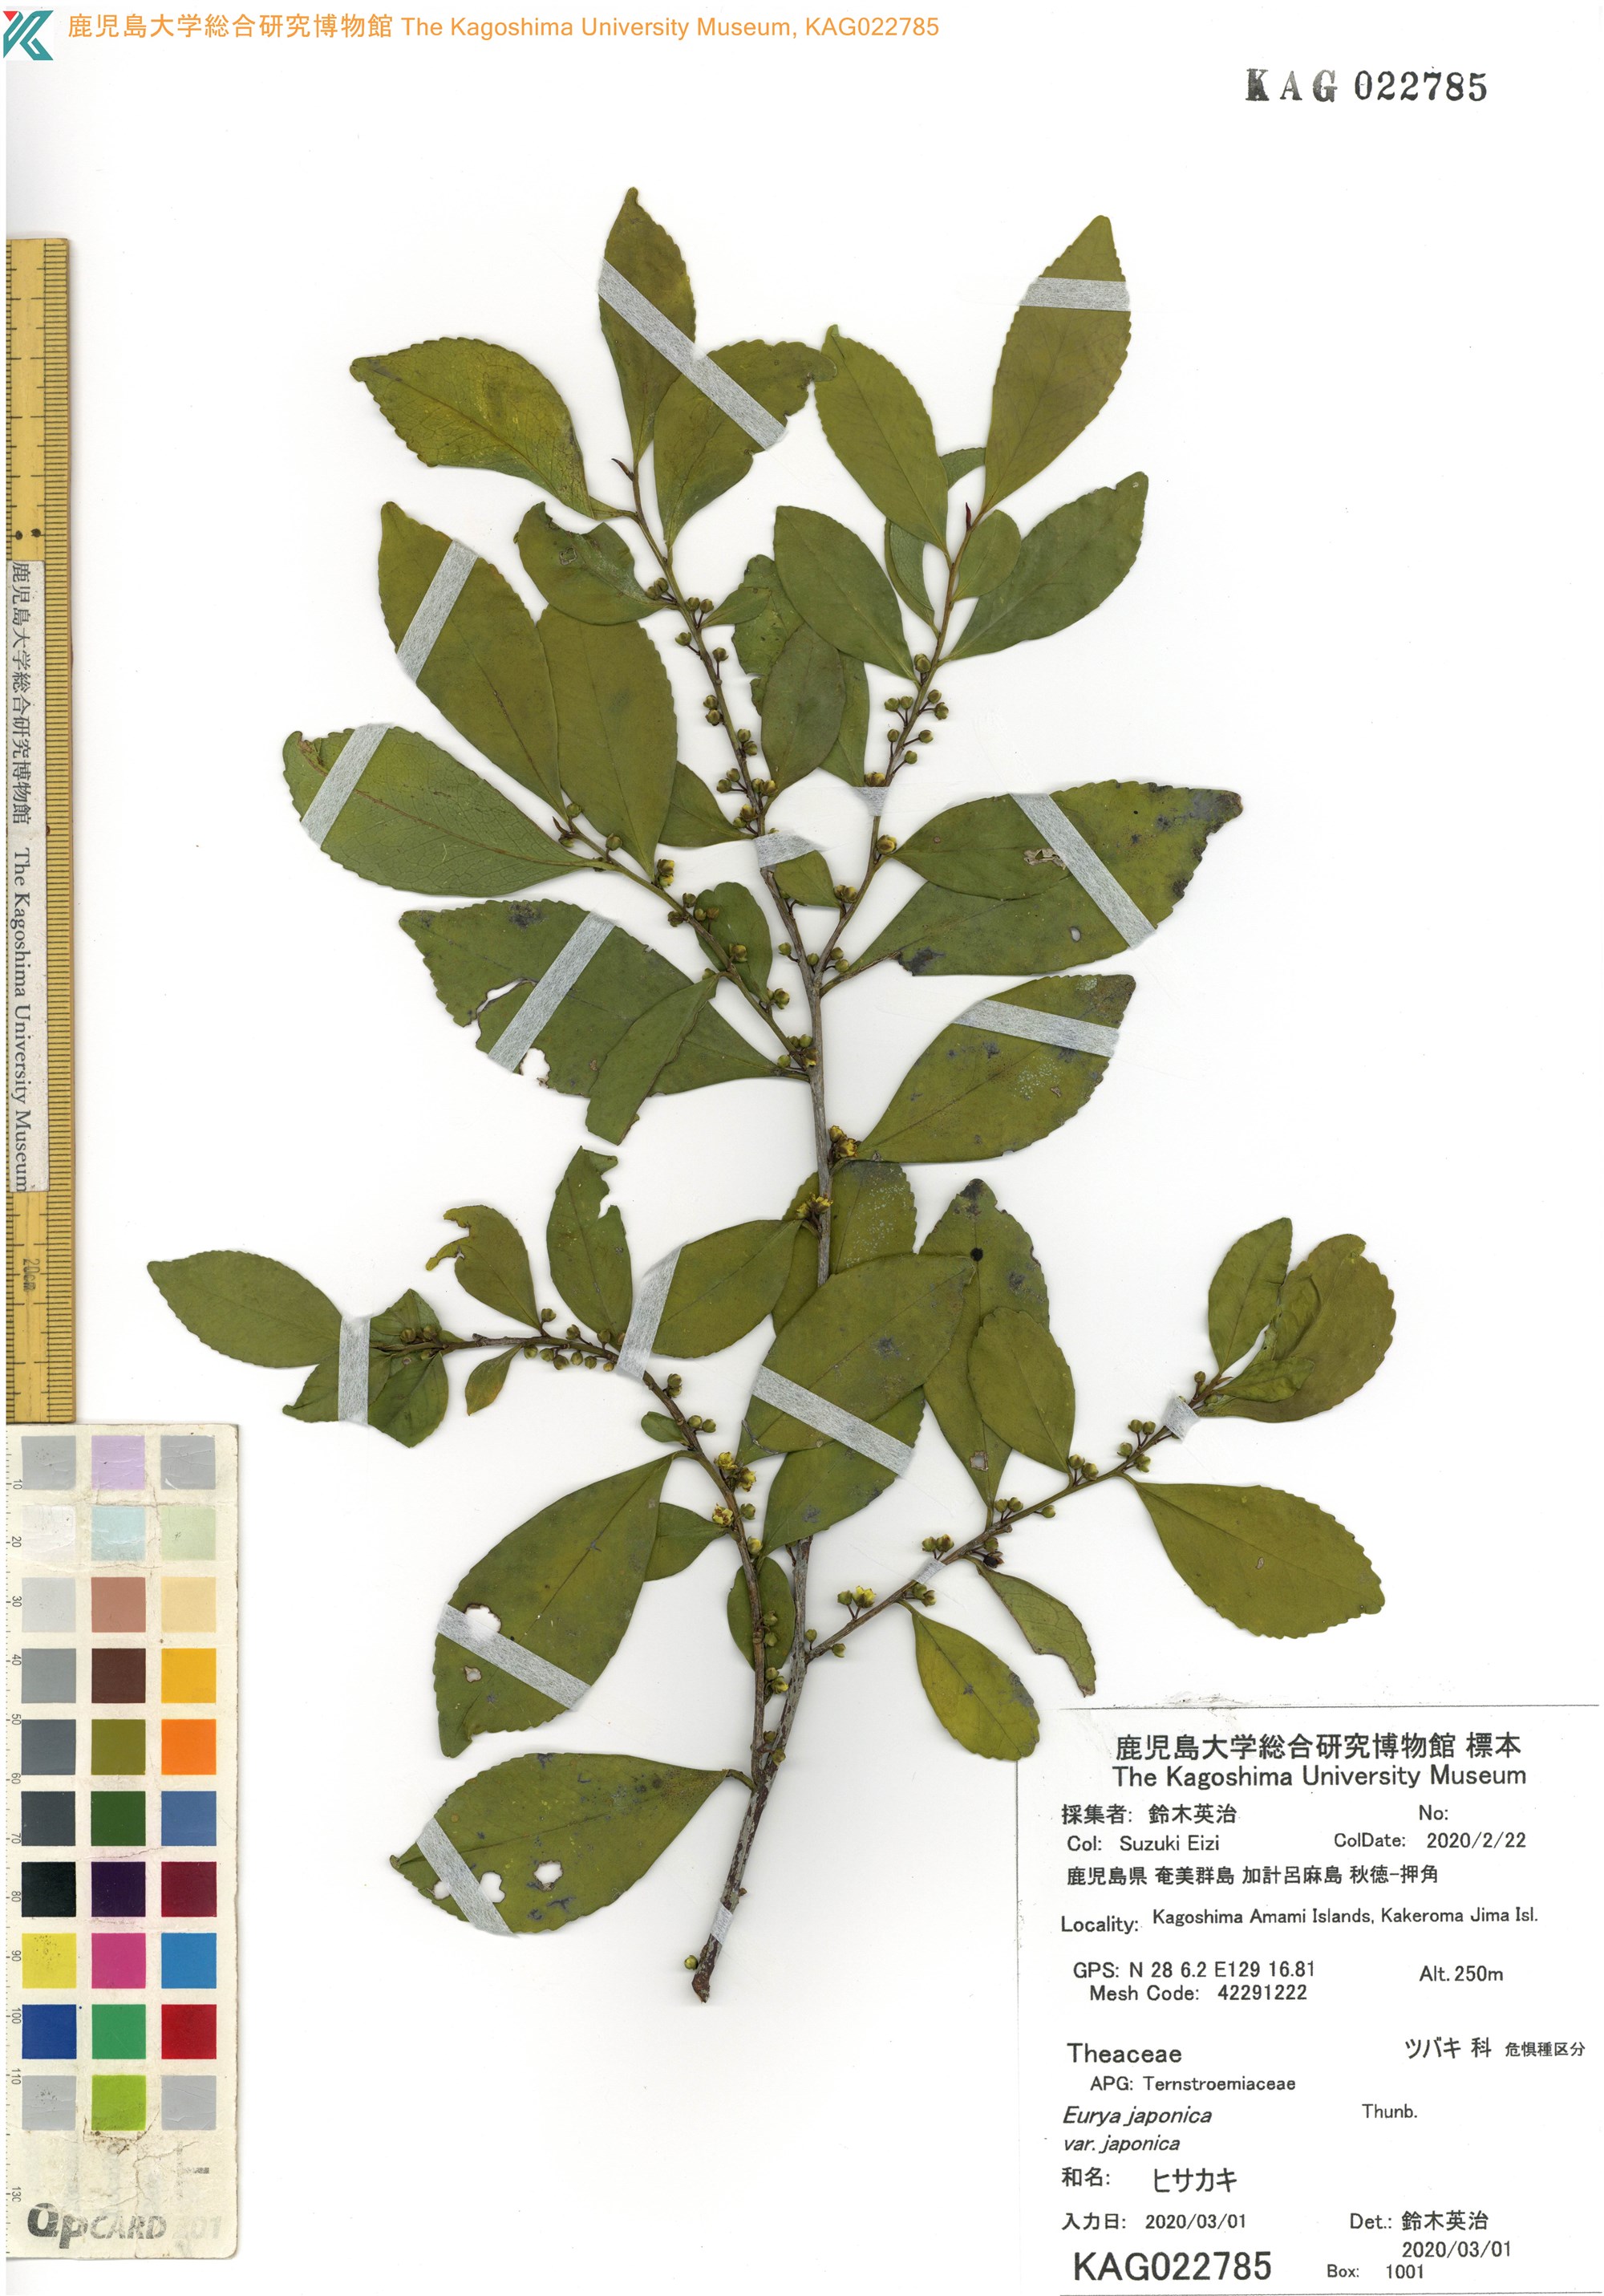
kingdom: Plantae
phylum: Tracheophyta
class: Magnoliopsida
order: Ericales
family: Pentaphylacaceae
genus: Eurya
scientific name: Eurya japonica
